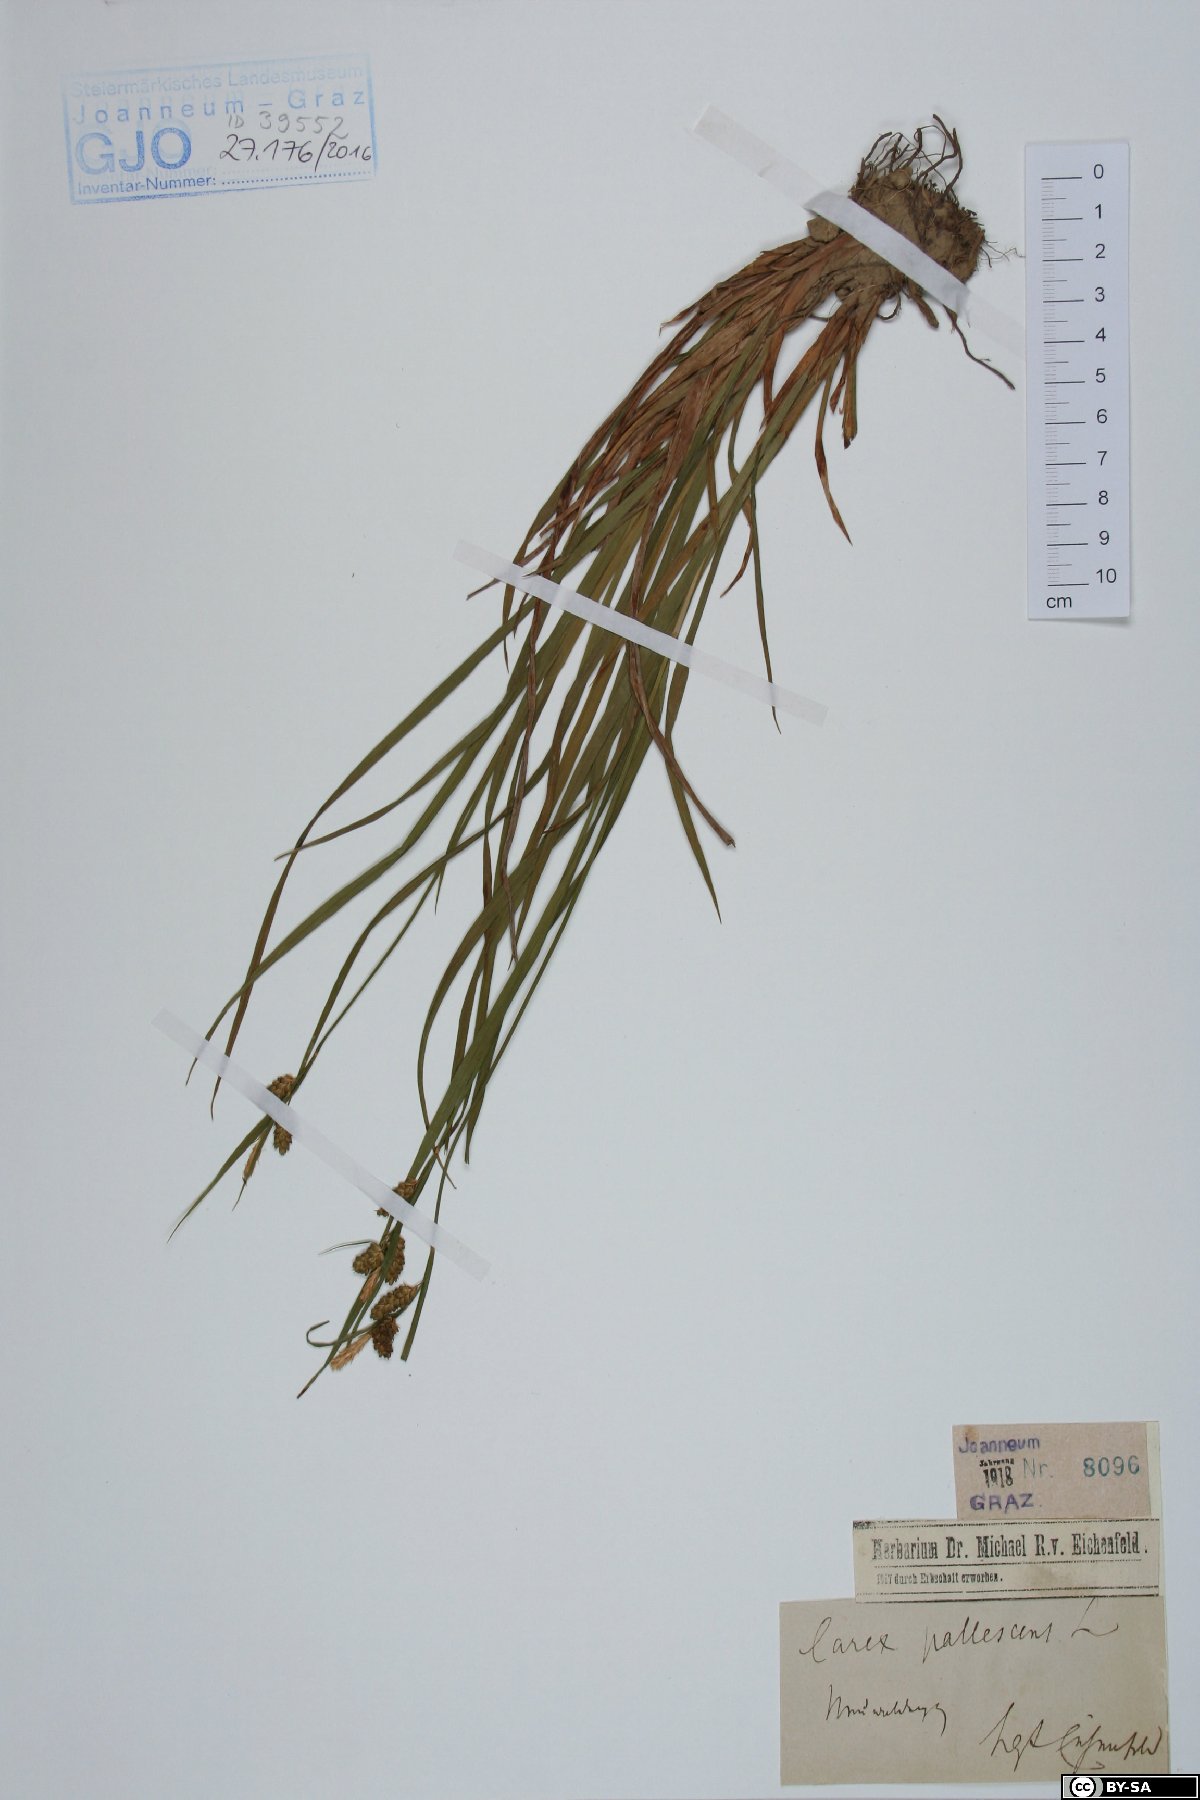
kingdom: Plantae
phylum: Tracheophyta
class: Liliopsida
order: Poales
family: Cyperaceae
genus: Carex
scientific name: Carex pallescens
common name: Pale sedge
